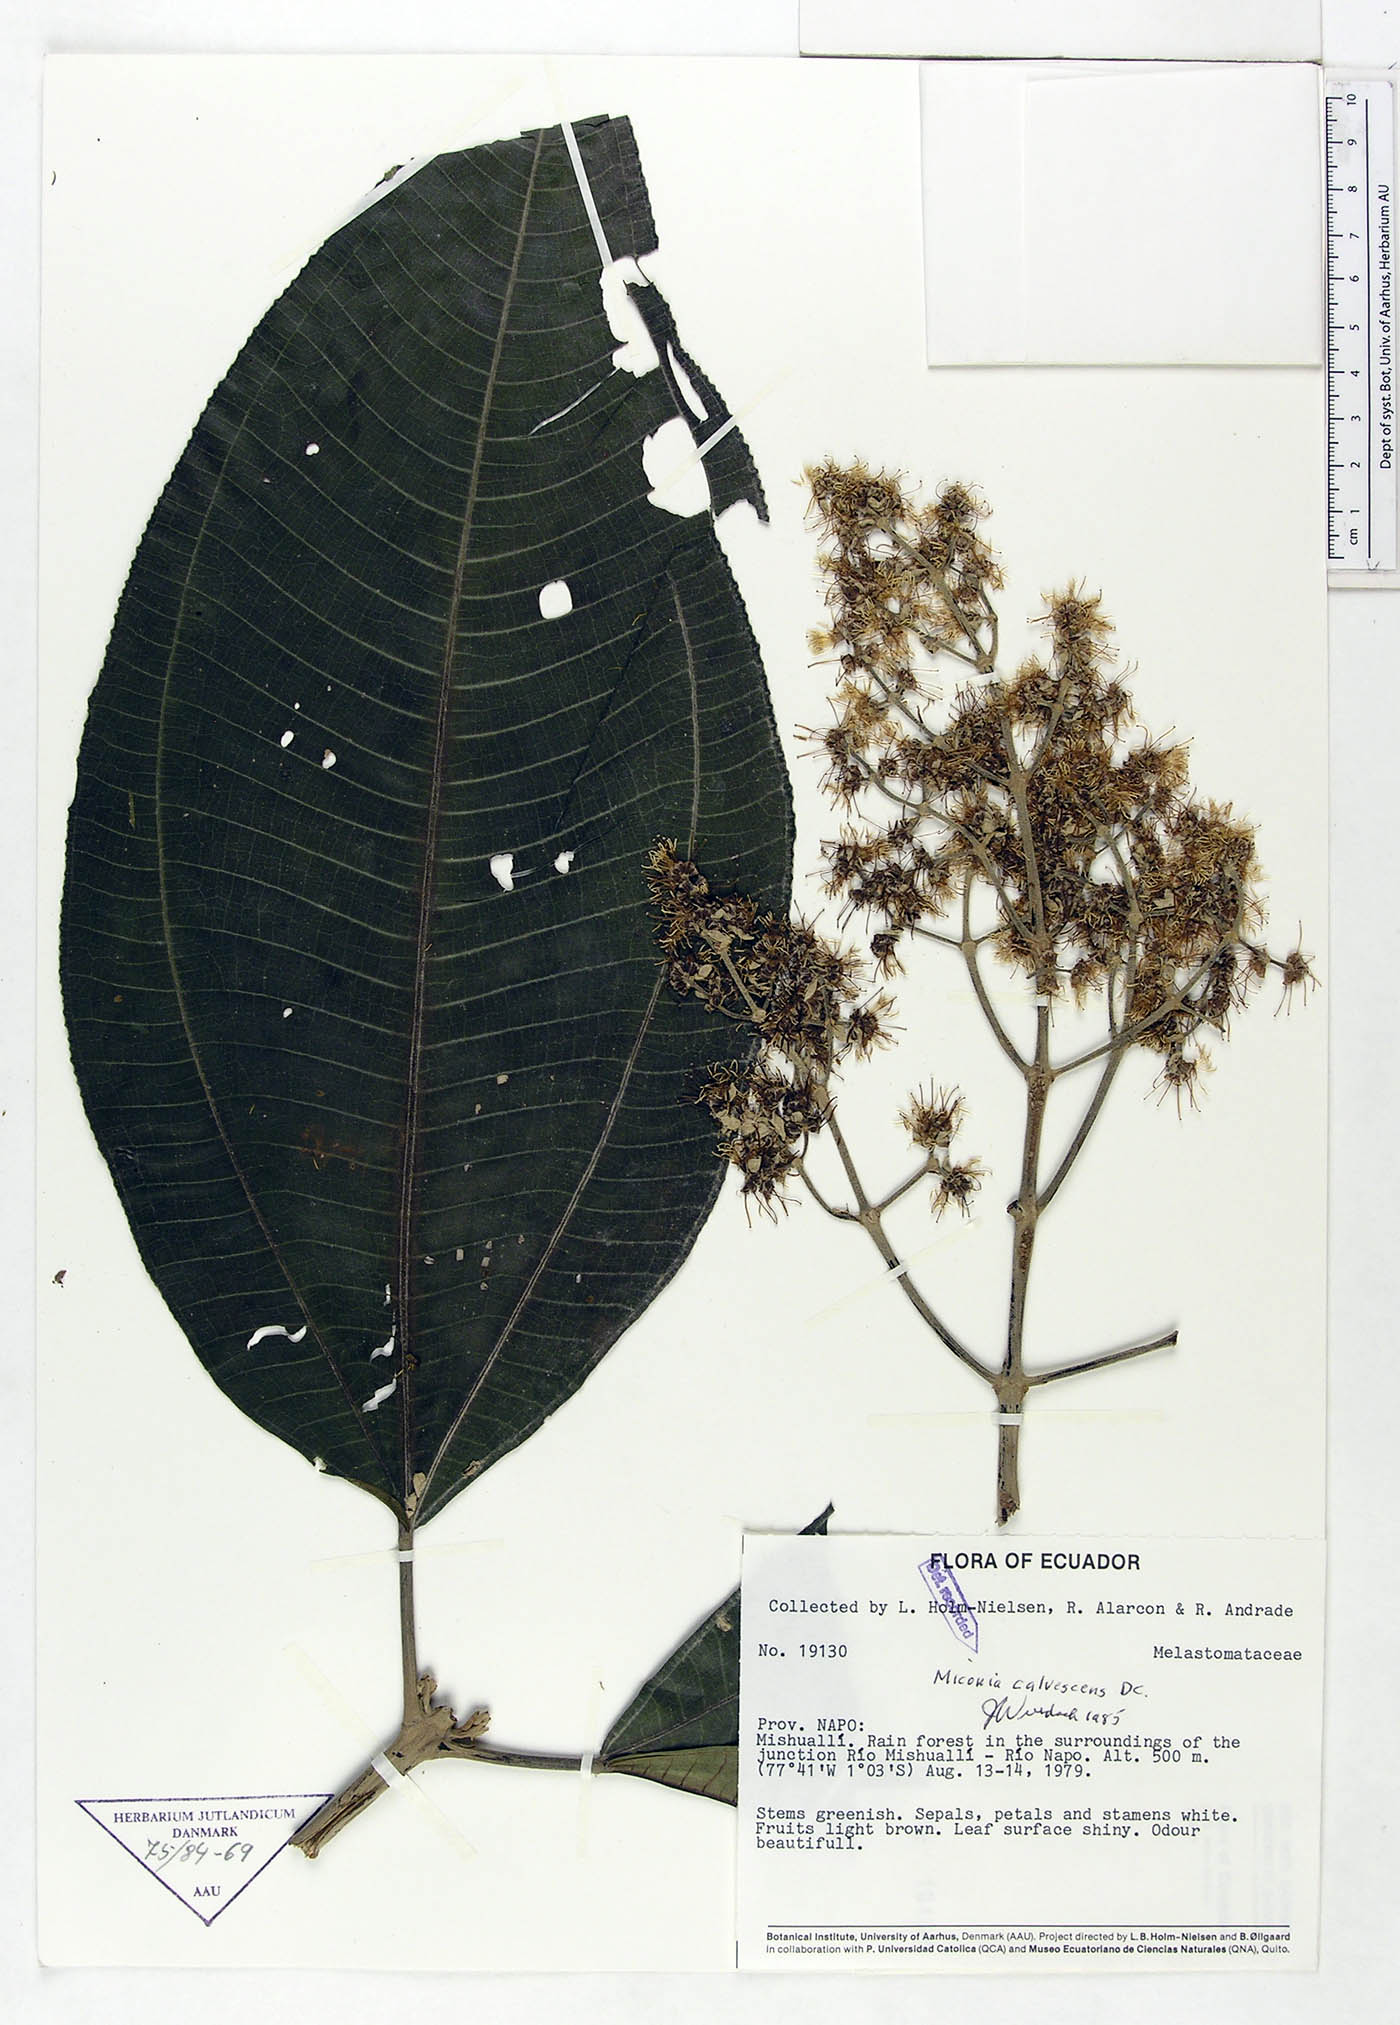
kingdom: Plantae
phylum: Tracheophyta
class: Magnoliopsida
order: Myrtales
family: Melastomataceae
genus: Miconia
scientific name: Miconia calvescens
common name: Purple plague
